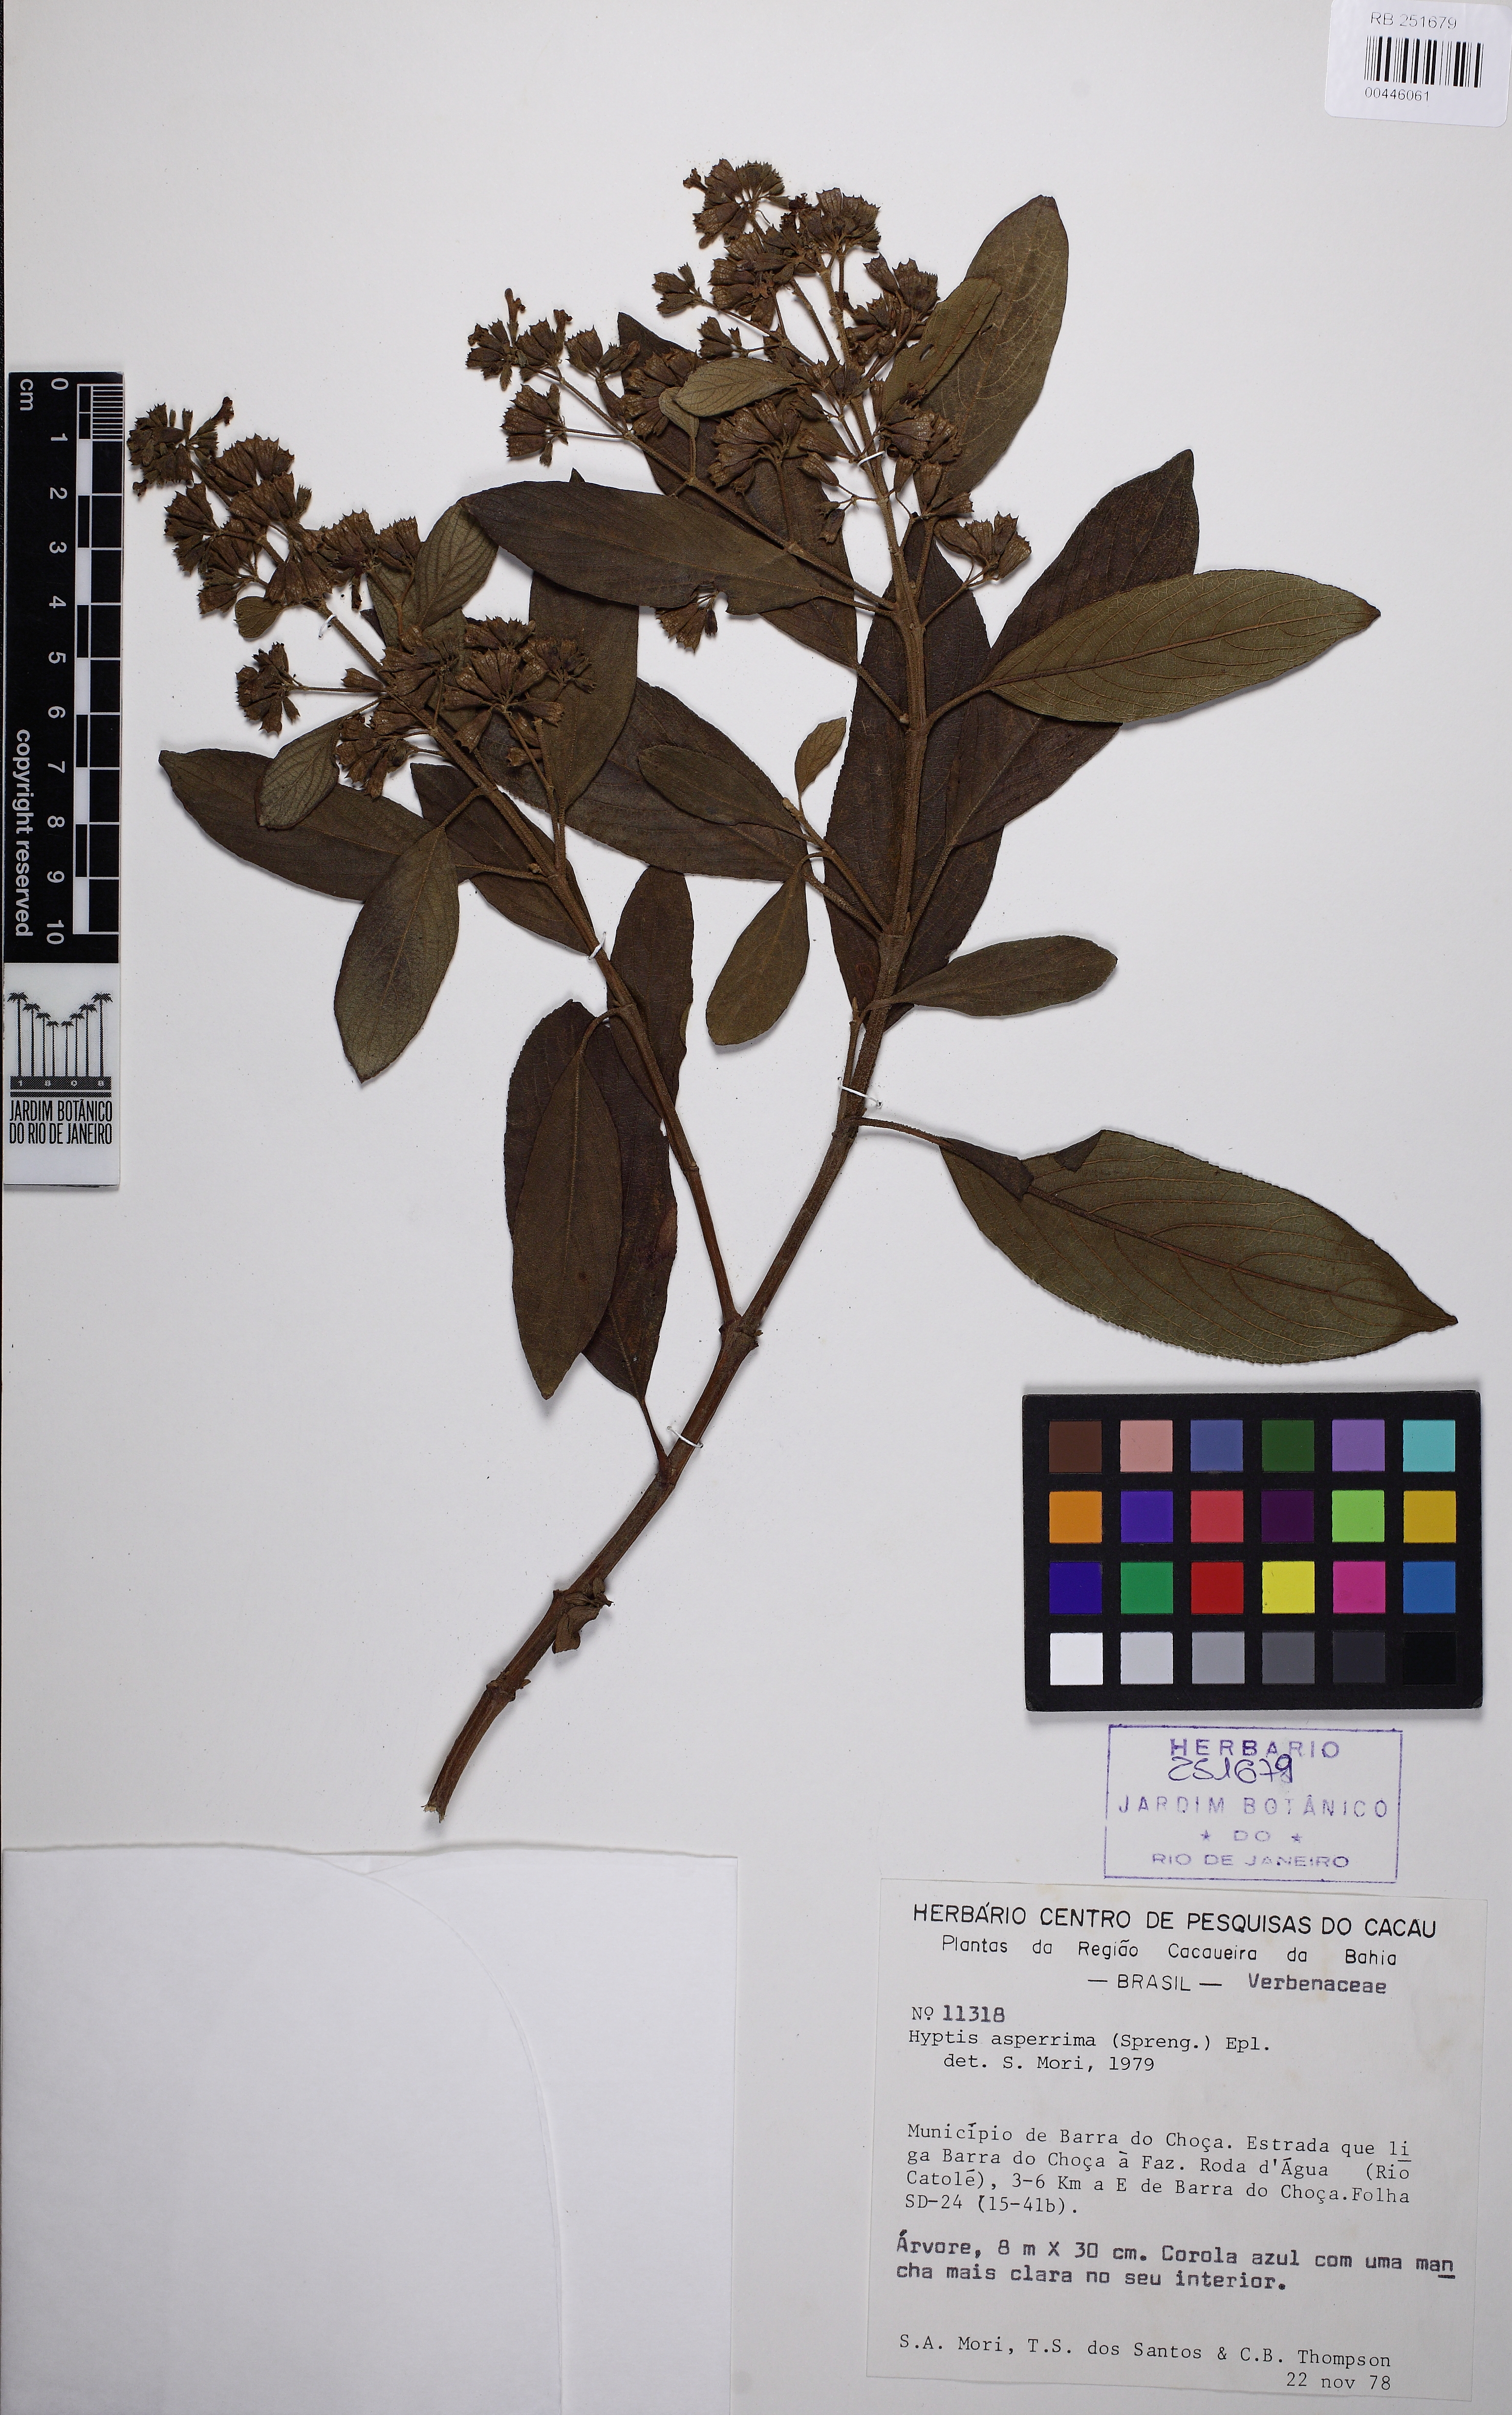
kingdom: Plantae
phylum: Tracheophyta
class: Magnoliopsida
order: Lamiales
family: Lamiaceae
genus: Hyptidendron
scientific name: Hyptidendron asperrimum
